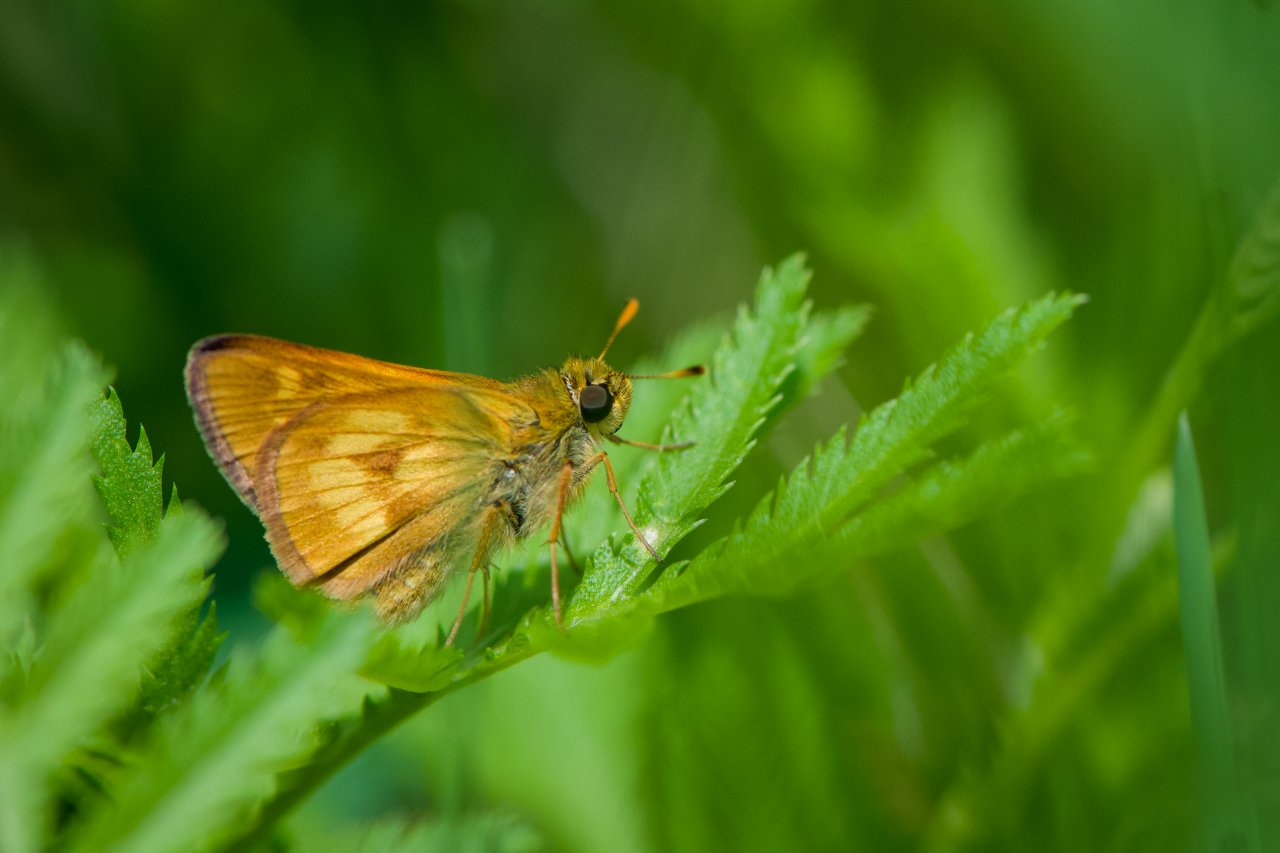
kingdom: Animalia
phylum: Arthropoda
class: Insecta
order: Lepidoptera
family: Hesperiidae
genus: Polites
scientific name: Polites
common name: Long Dash Skipper
